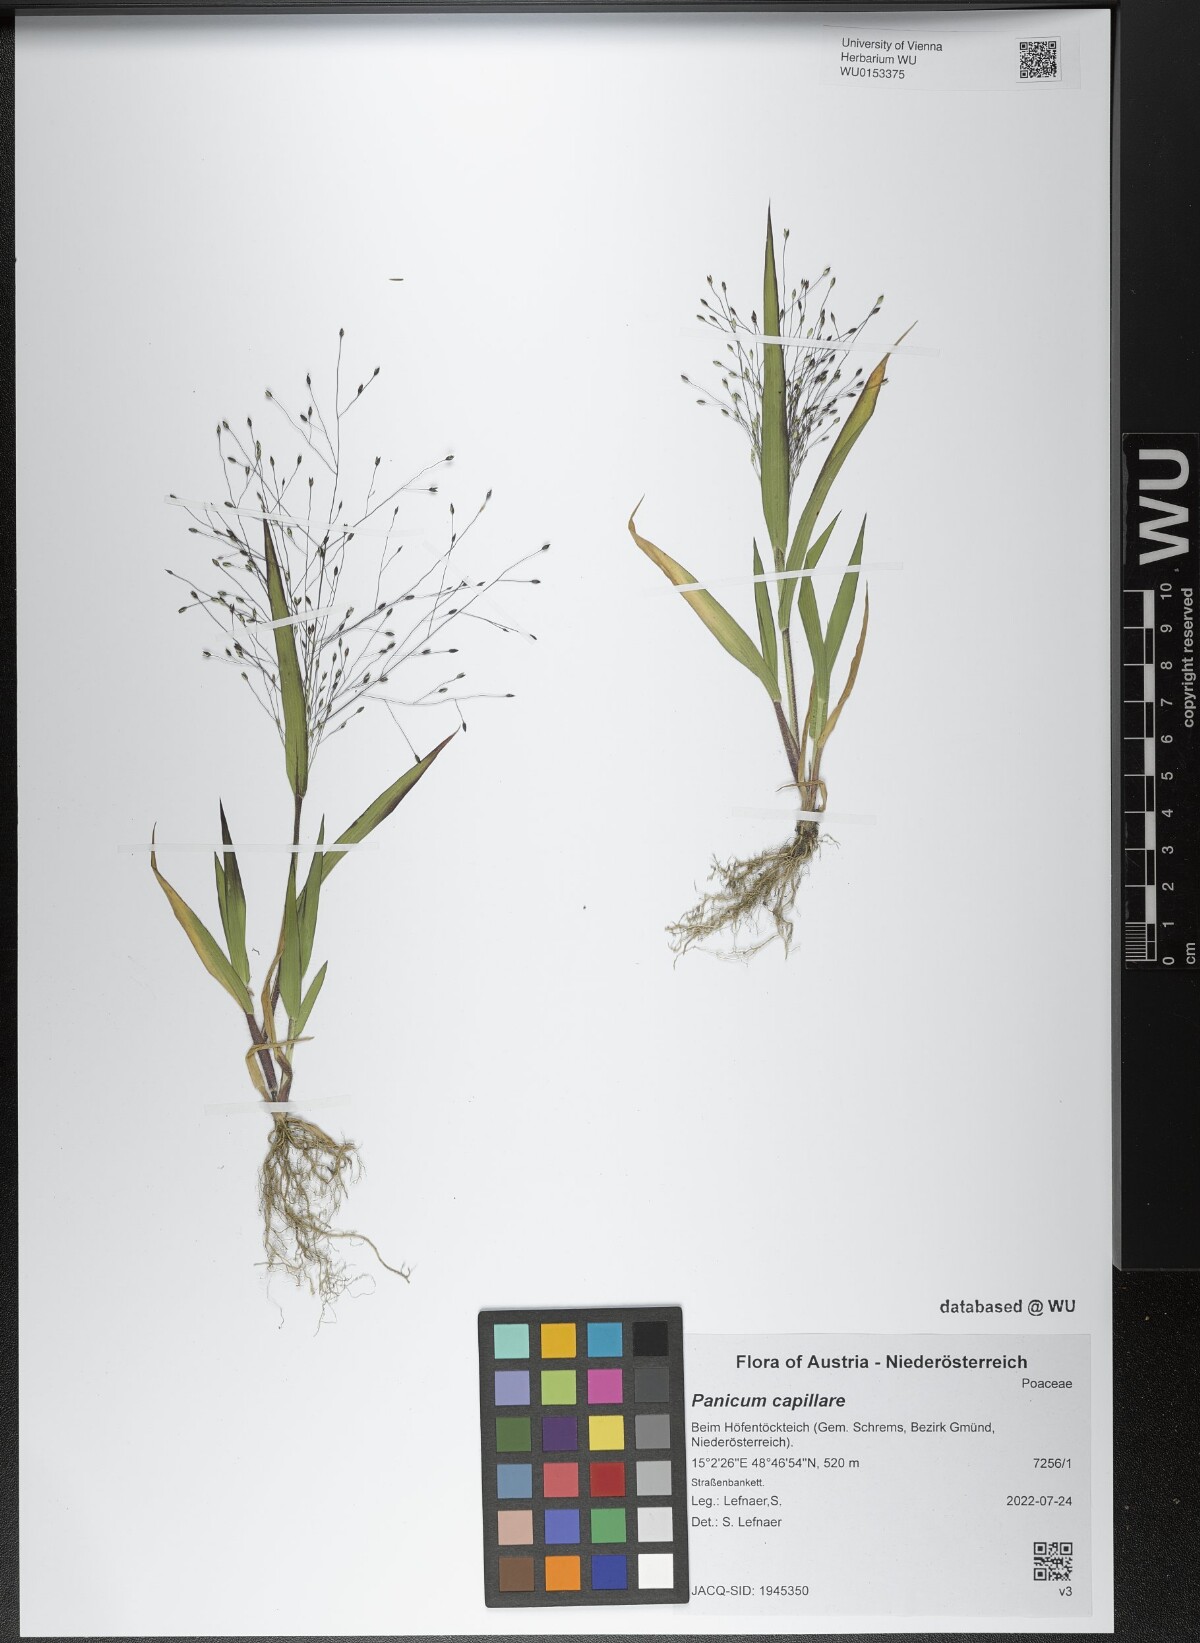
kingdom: Plantae
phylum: Tracheophyta
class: Liliopsida
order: Poales
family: Poaceae
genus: Panicum
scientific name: Panicum capillare
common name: Witch-grass
